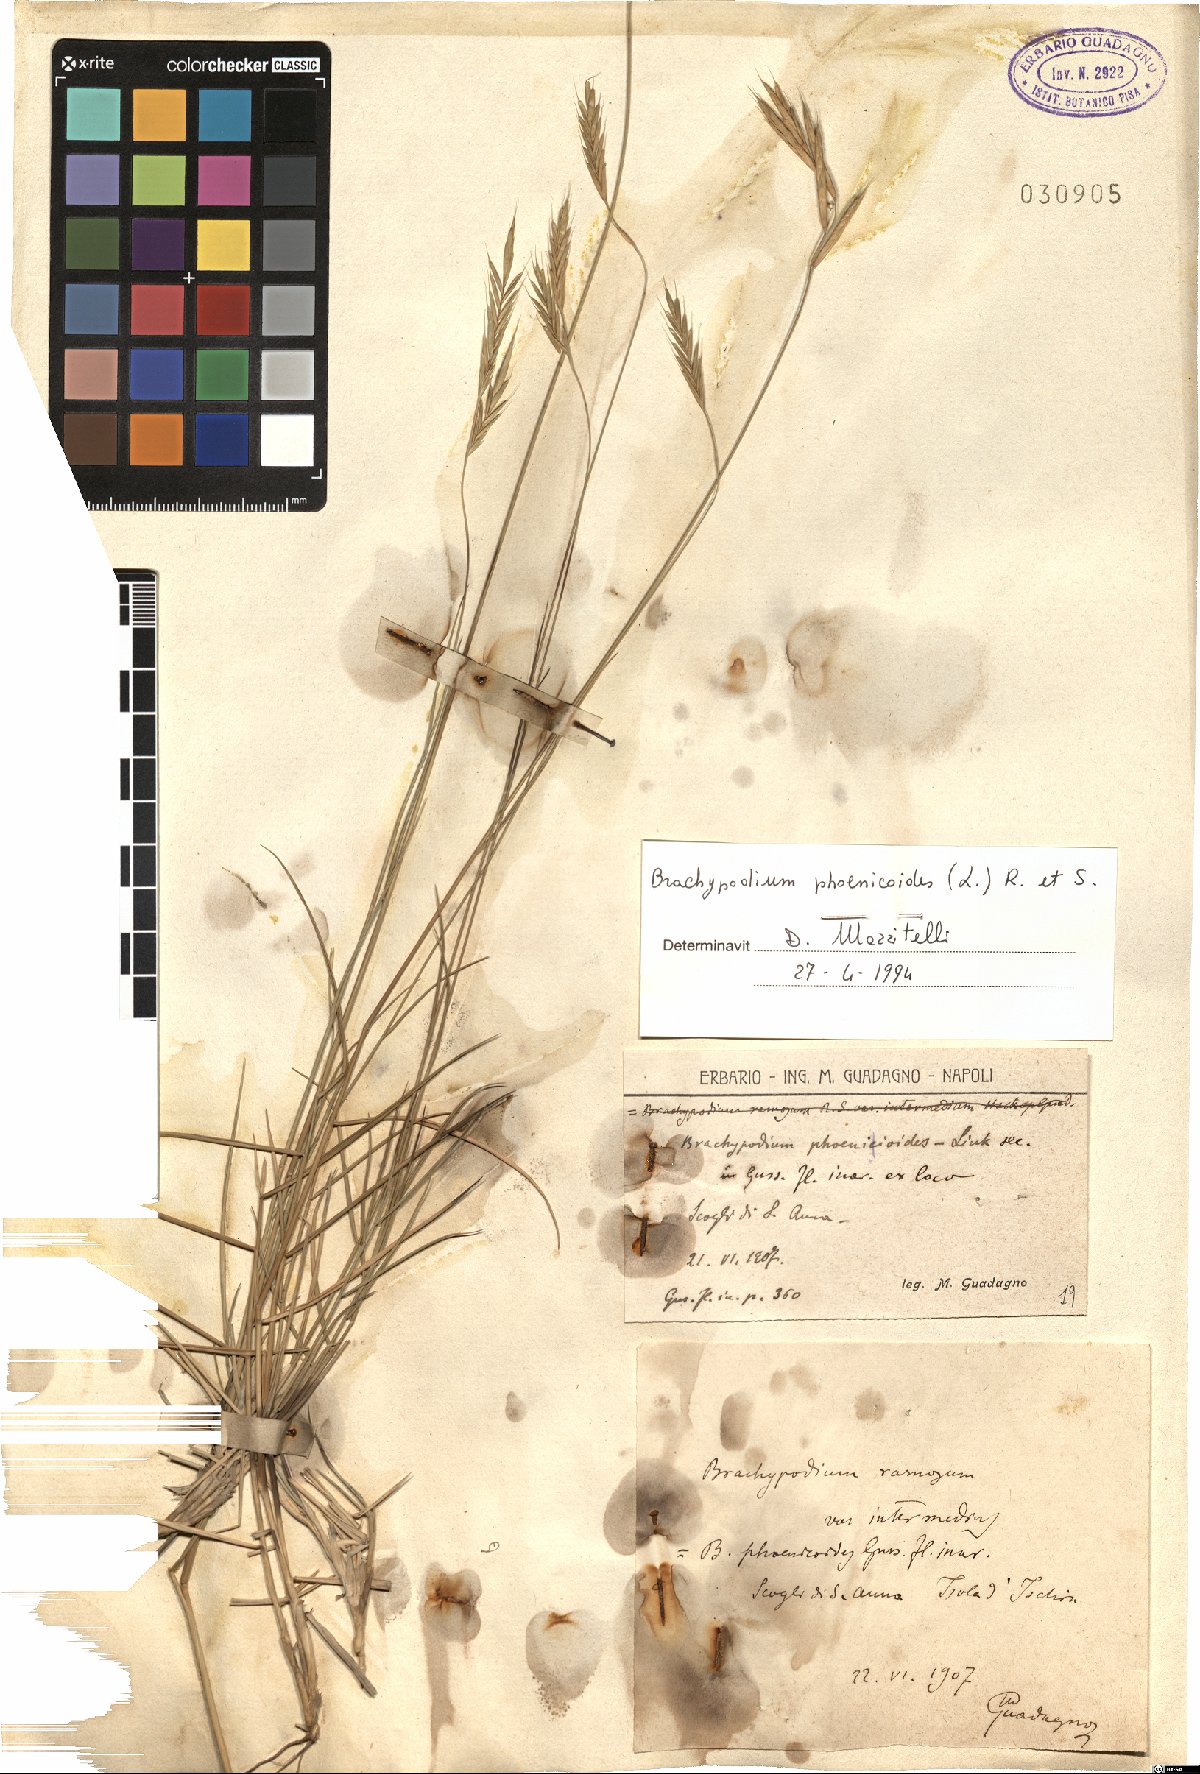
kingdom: Plantae
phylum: Tracheophyta
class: Liliopsida
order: Poales
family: Poaceae
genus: Brachypodium
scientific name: Brachypodium phoenicoides
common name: Thinleaf false brome
